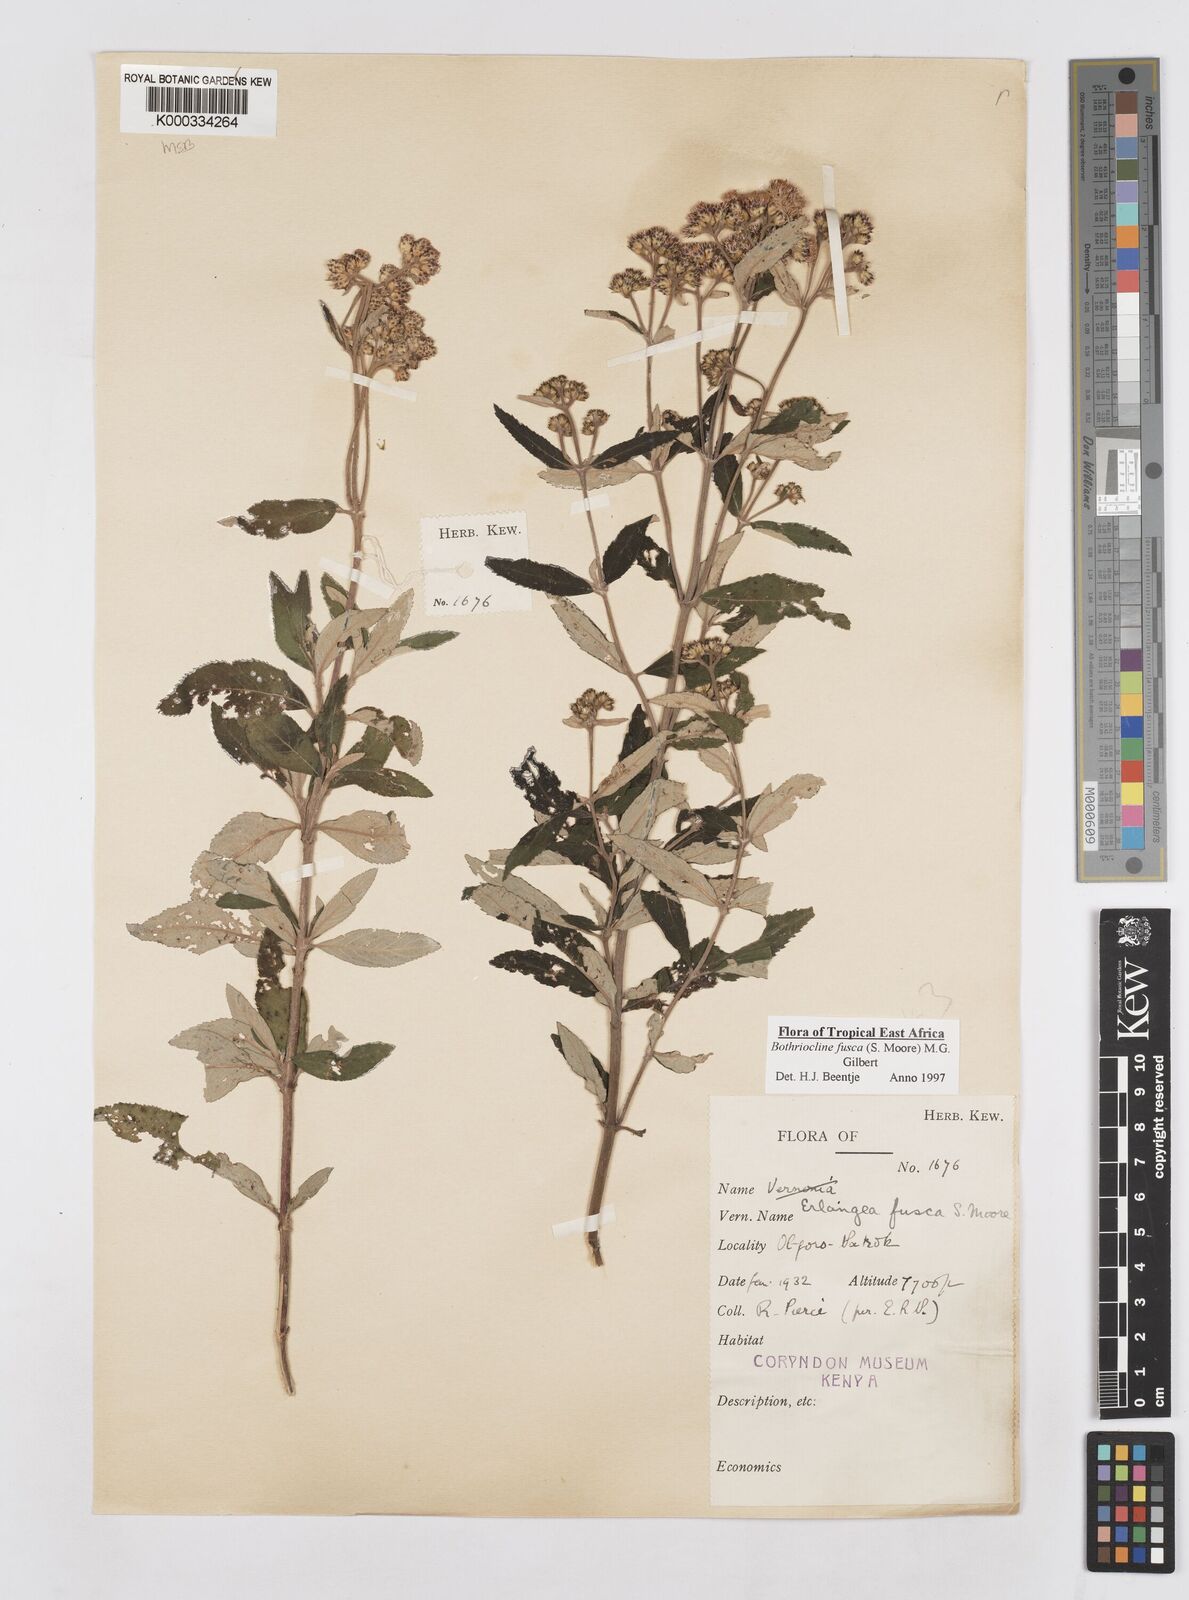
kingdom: Plantae
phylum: Tracheophyta
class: Magnoliopsida
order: Asterales
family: Asteraceae
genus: Bothriocline
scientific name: Bothriocline fusca
